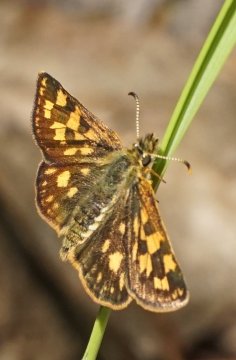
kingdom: Animalia
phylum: Arthropoda
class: Insecta
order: Lepidoptera
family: Hesperiidae
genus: Carterocephalus
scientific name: Carterocephalus mandan
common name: Arctic Skipperling
